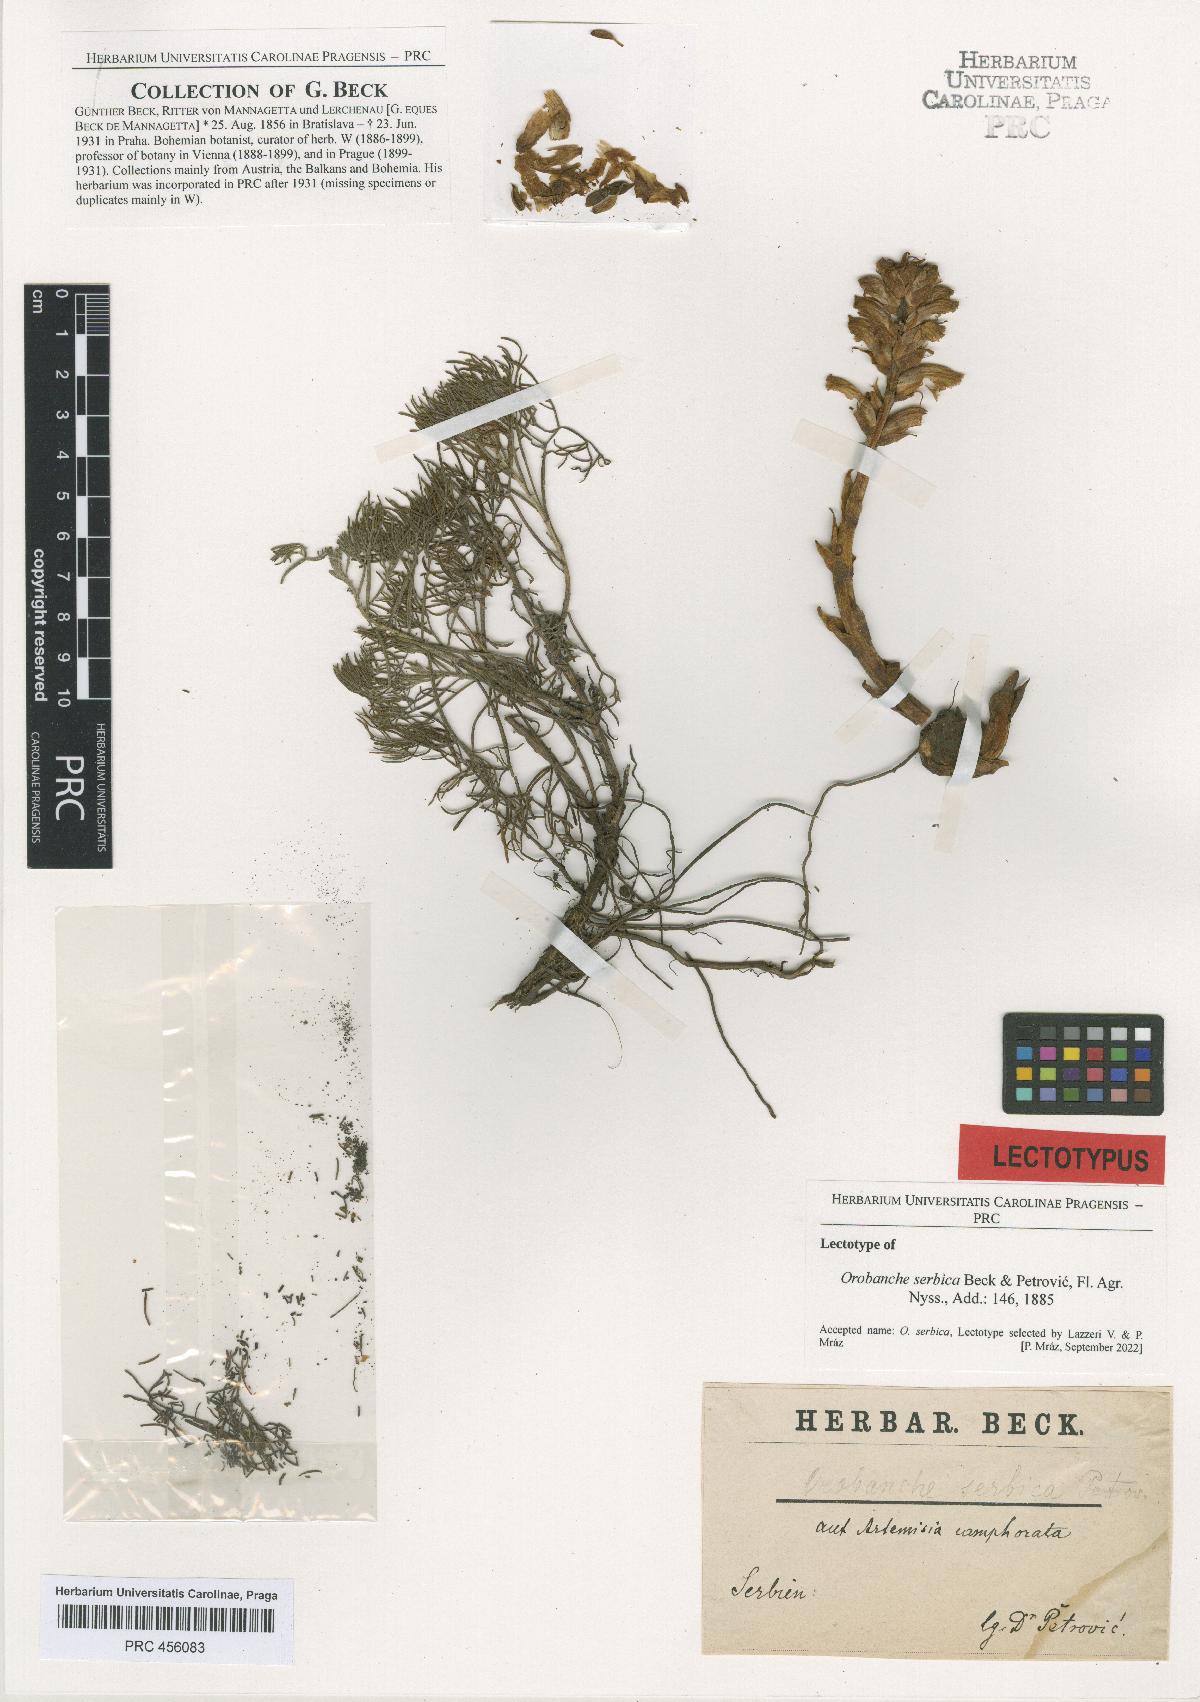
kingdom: Plantae
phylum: Tracheophyta
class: Magnoliopsida
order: Lamiales
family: Orobanchaceae
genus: Orobanche
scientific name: Orobanche artemisiae-campestris
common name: Oxtongue broomrape
